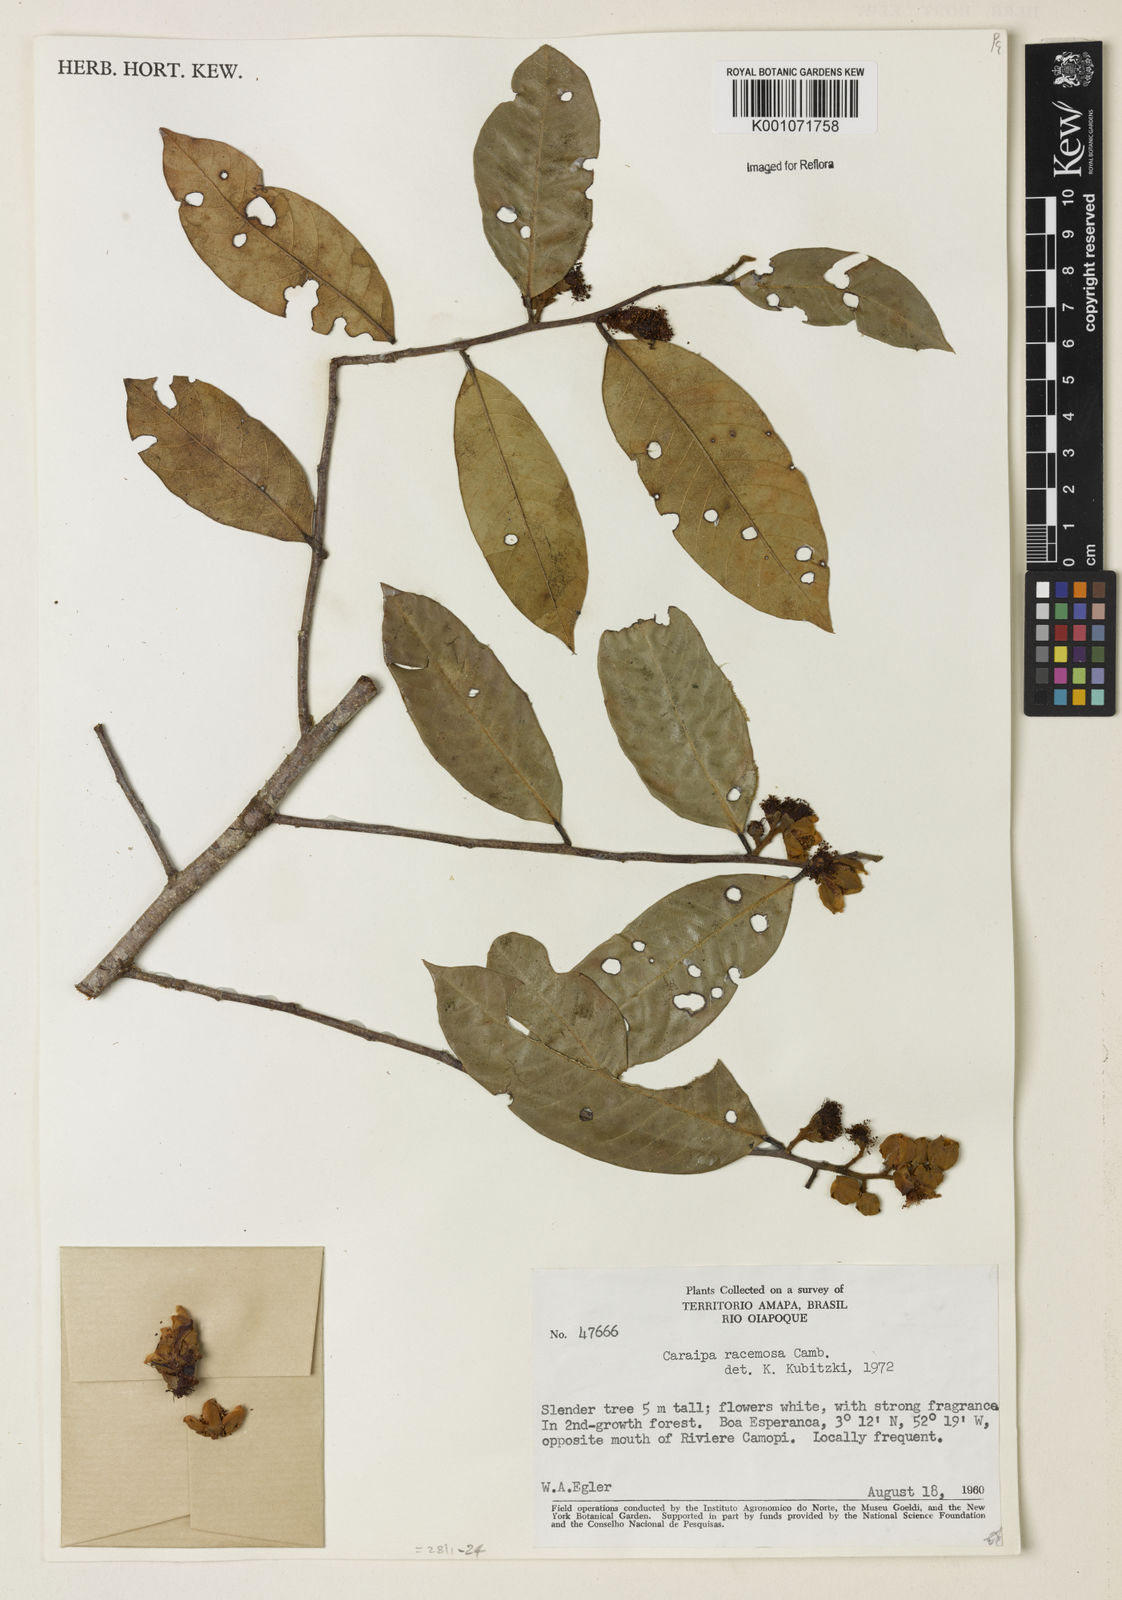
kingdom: Plantae
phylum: Tracheophyta
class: Magnoliopsida
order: Malpighiales
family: Calophyllaceae
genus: Caraipa
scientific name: Caraipa racemosa
